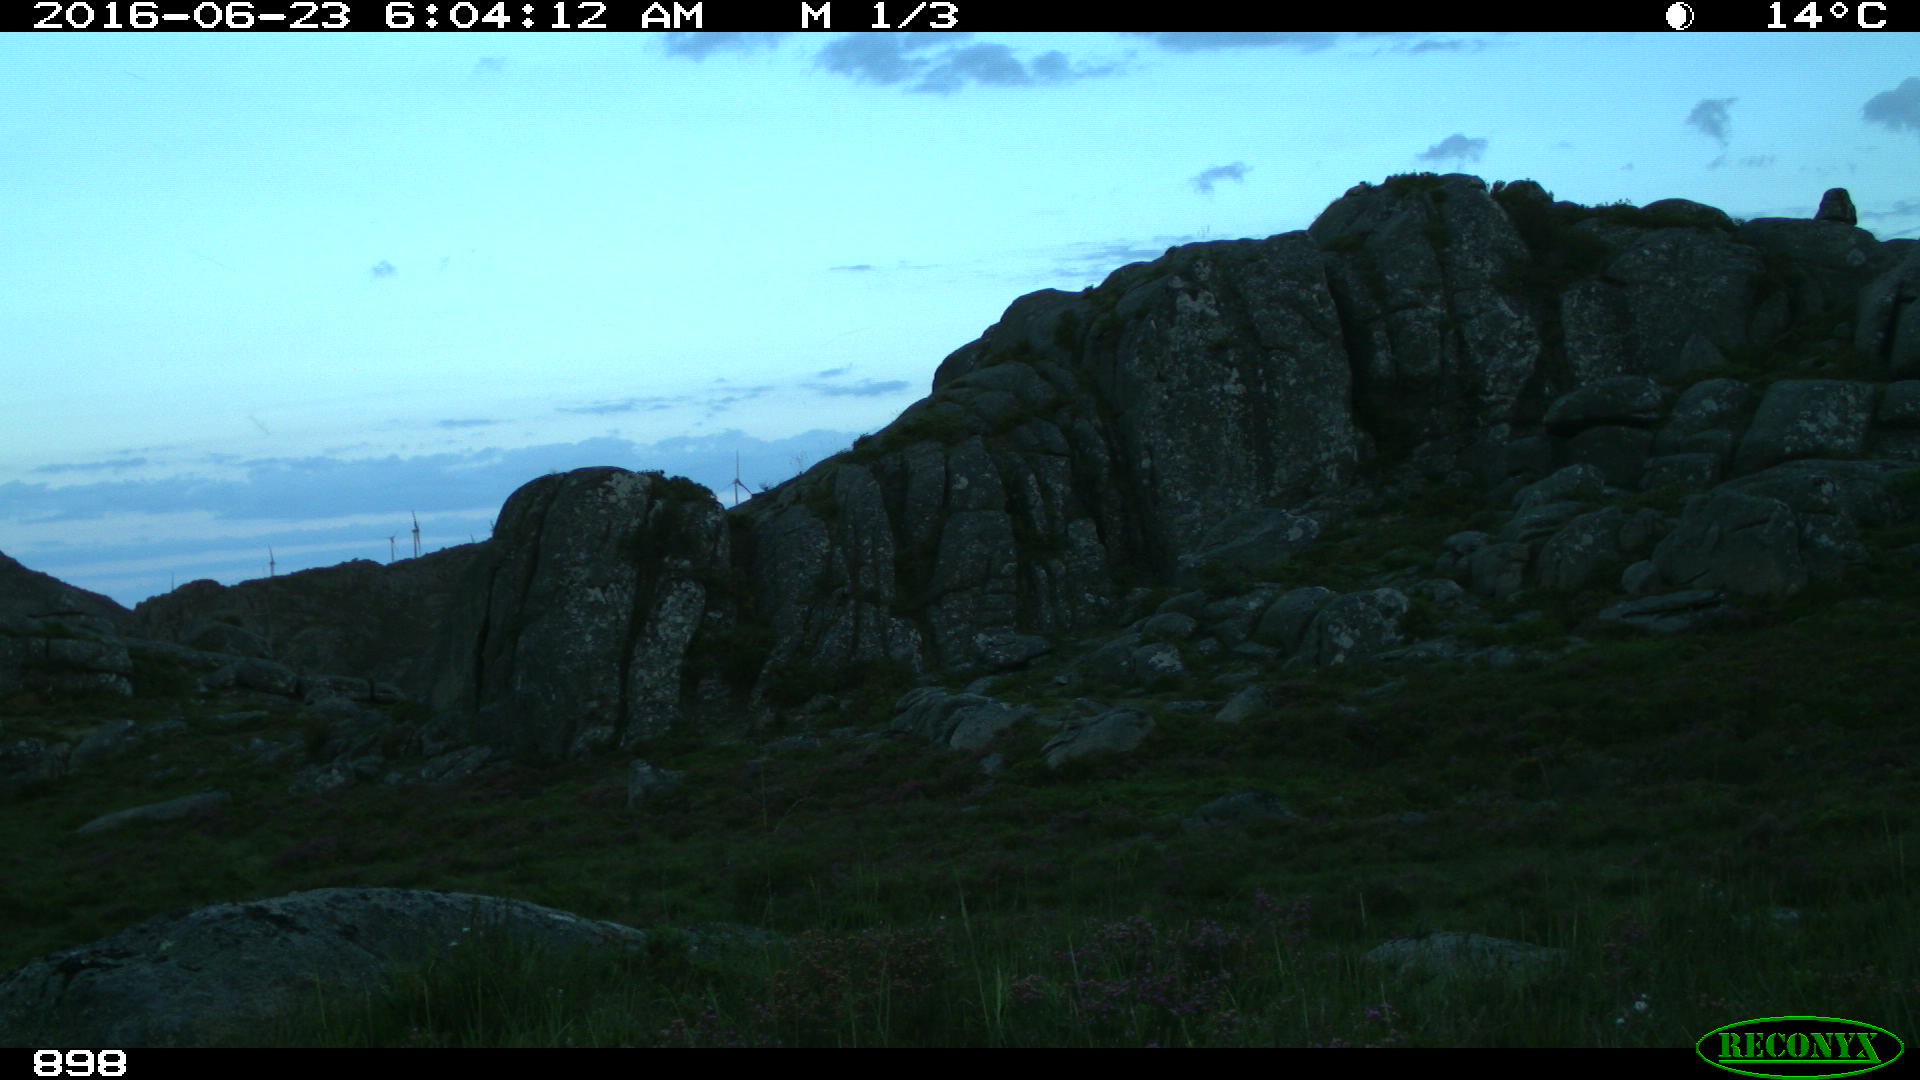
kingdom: Animalia
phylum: Chordata
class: Mammalia
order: Artiodactyla
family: Bovidae
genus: Bos
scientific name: Bos taurus
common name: Domesticated cattle
